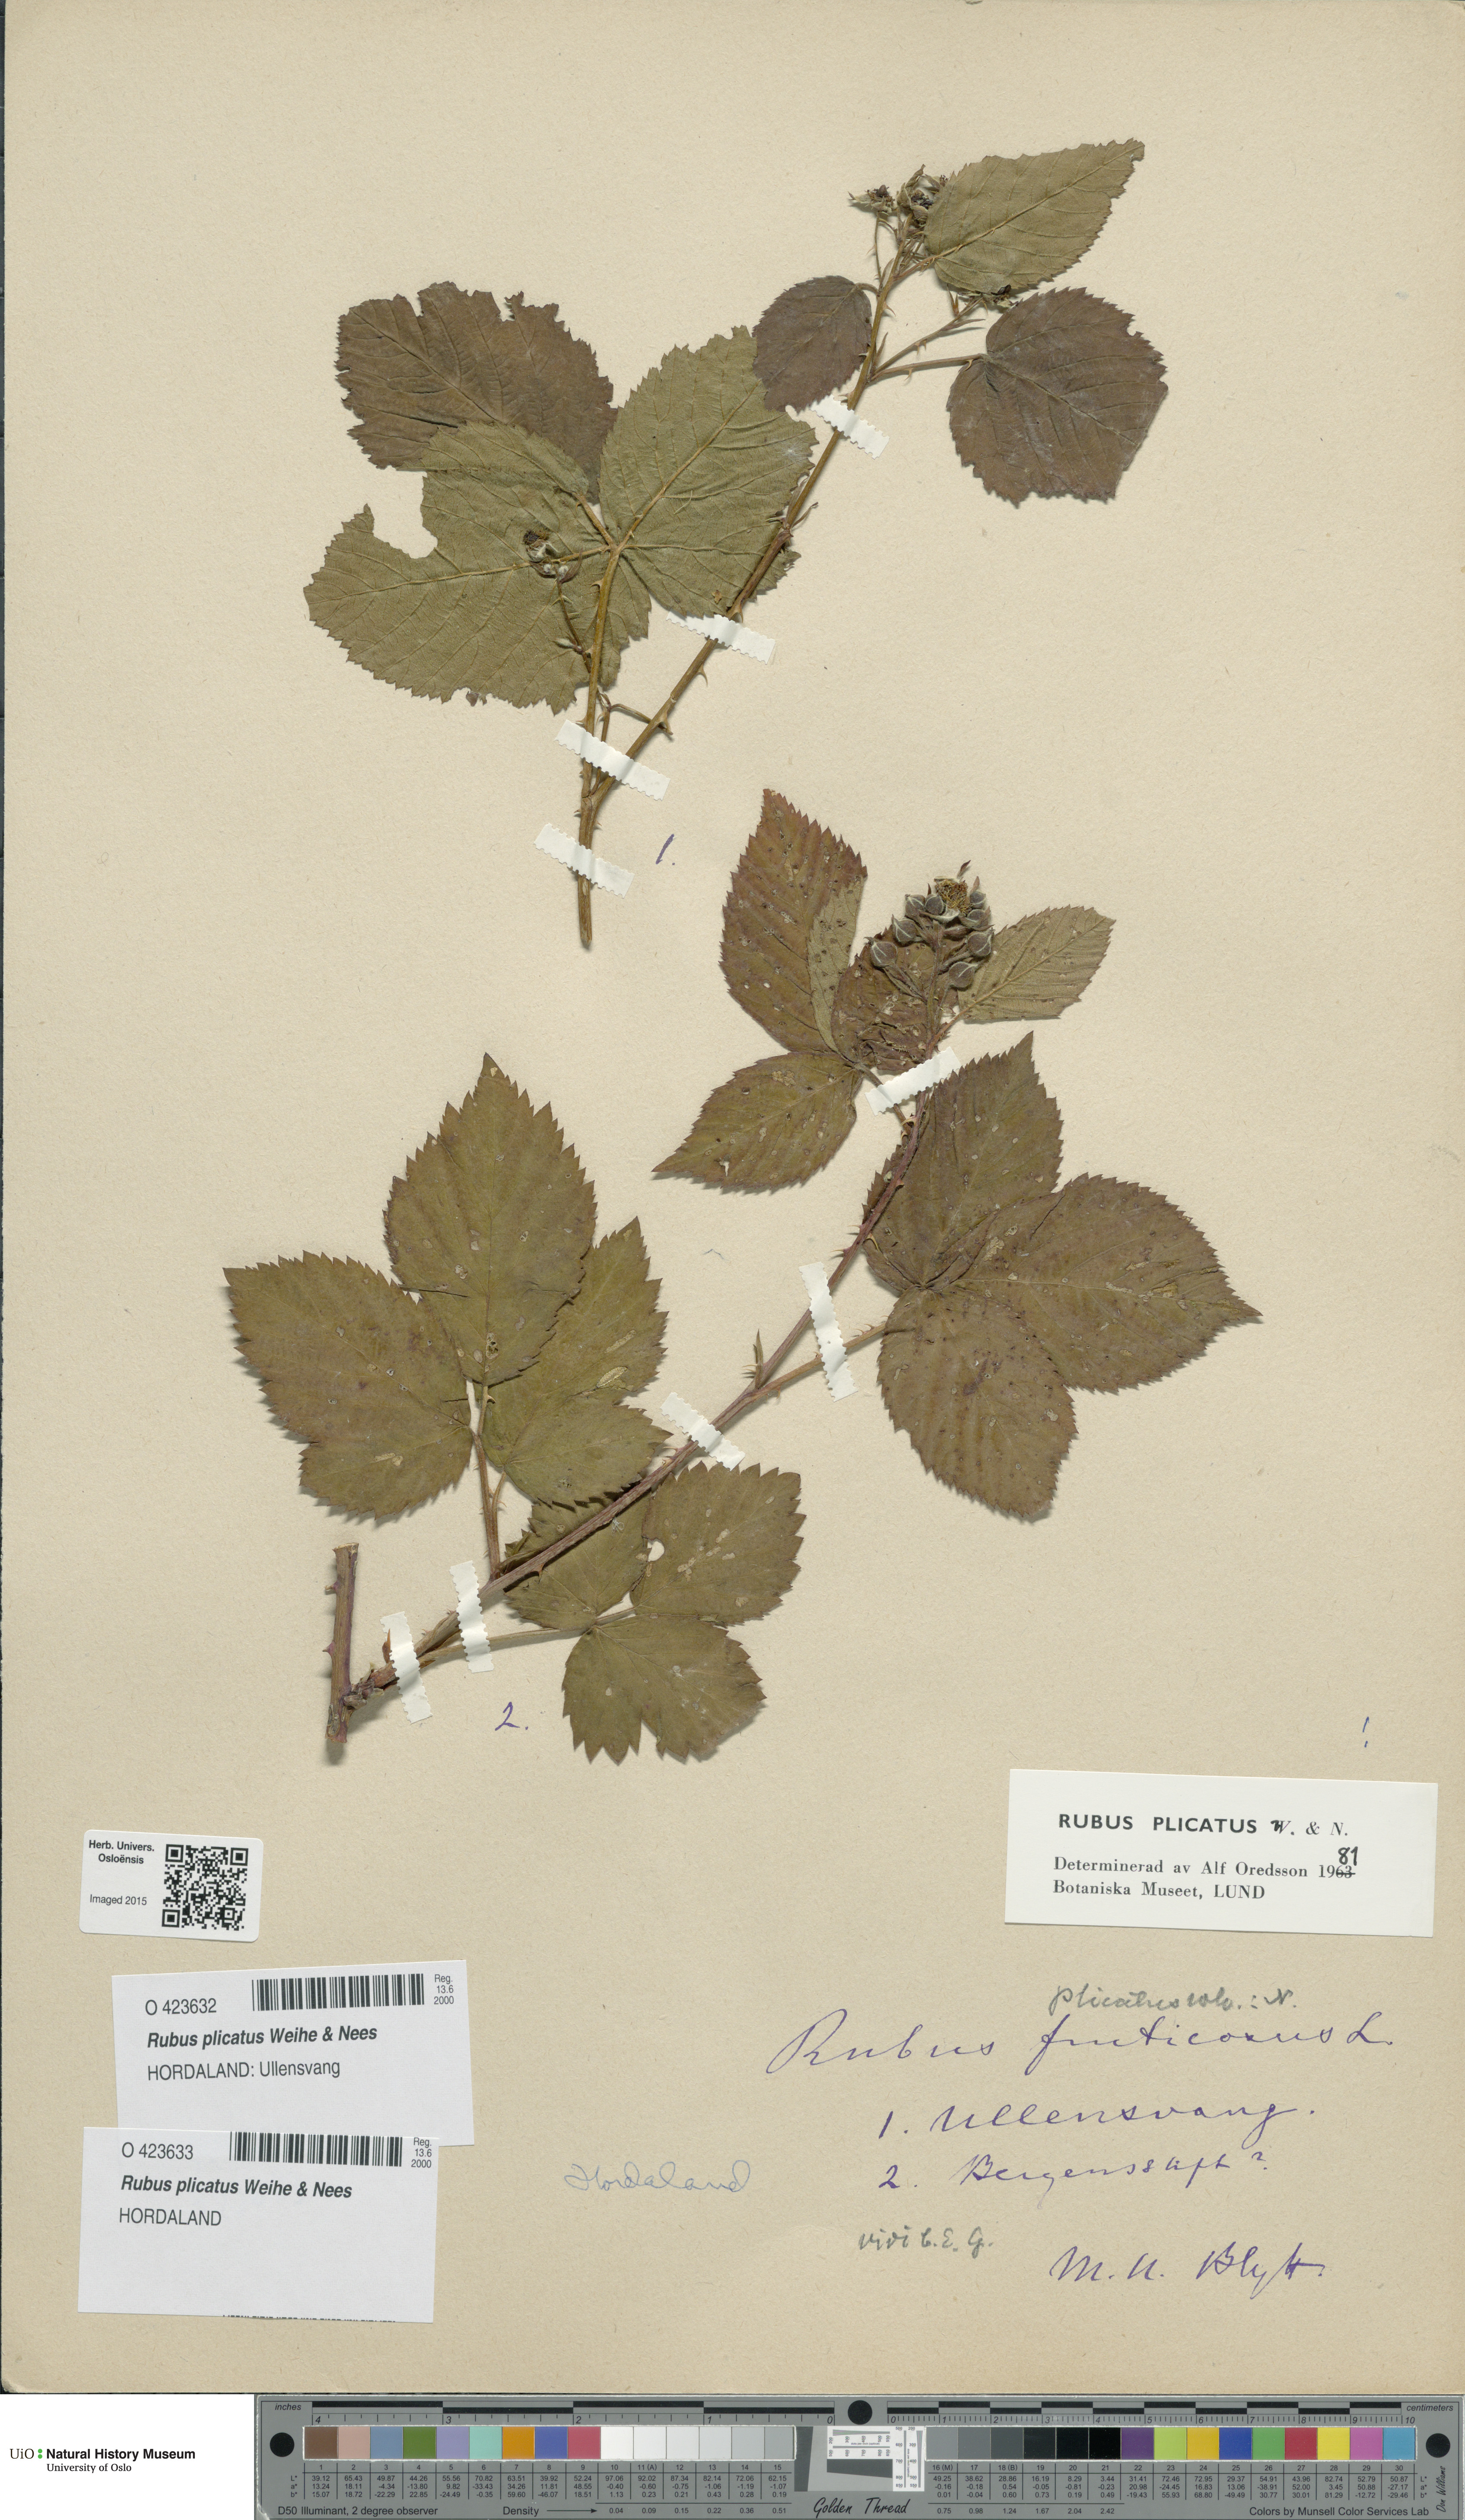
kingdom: Plantae
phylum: Tracheophyta
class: Magnoliopsida
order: Rosales
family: Rosaceae
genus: Rubus
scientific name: Rubus fruticosus
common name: Blackberry, bramble
